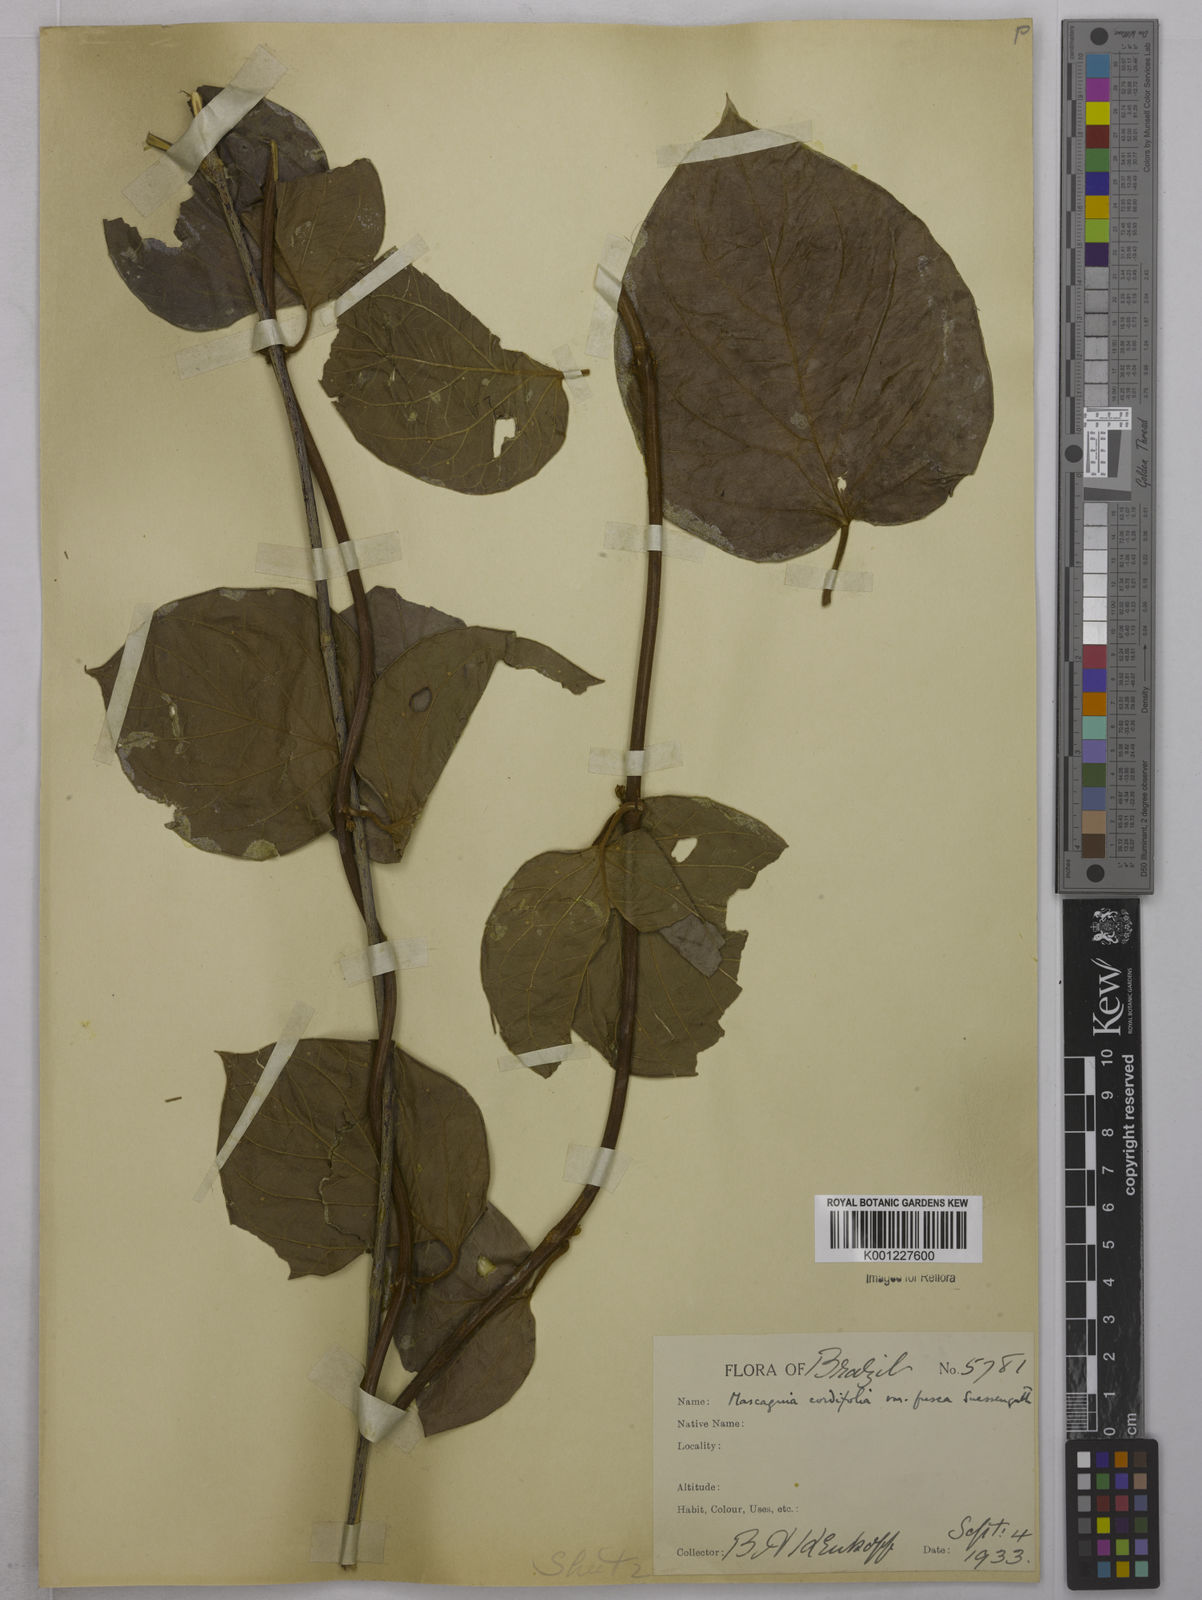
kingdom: Plantae
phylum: Tracheophyta
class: Magnoliopsida
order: Malpighiales
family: Malpighiaceae
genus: Mascagnia
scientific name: Mascagnia cordifolia
